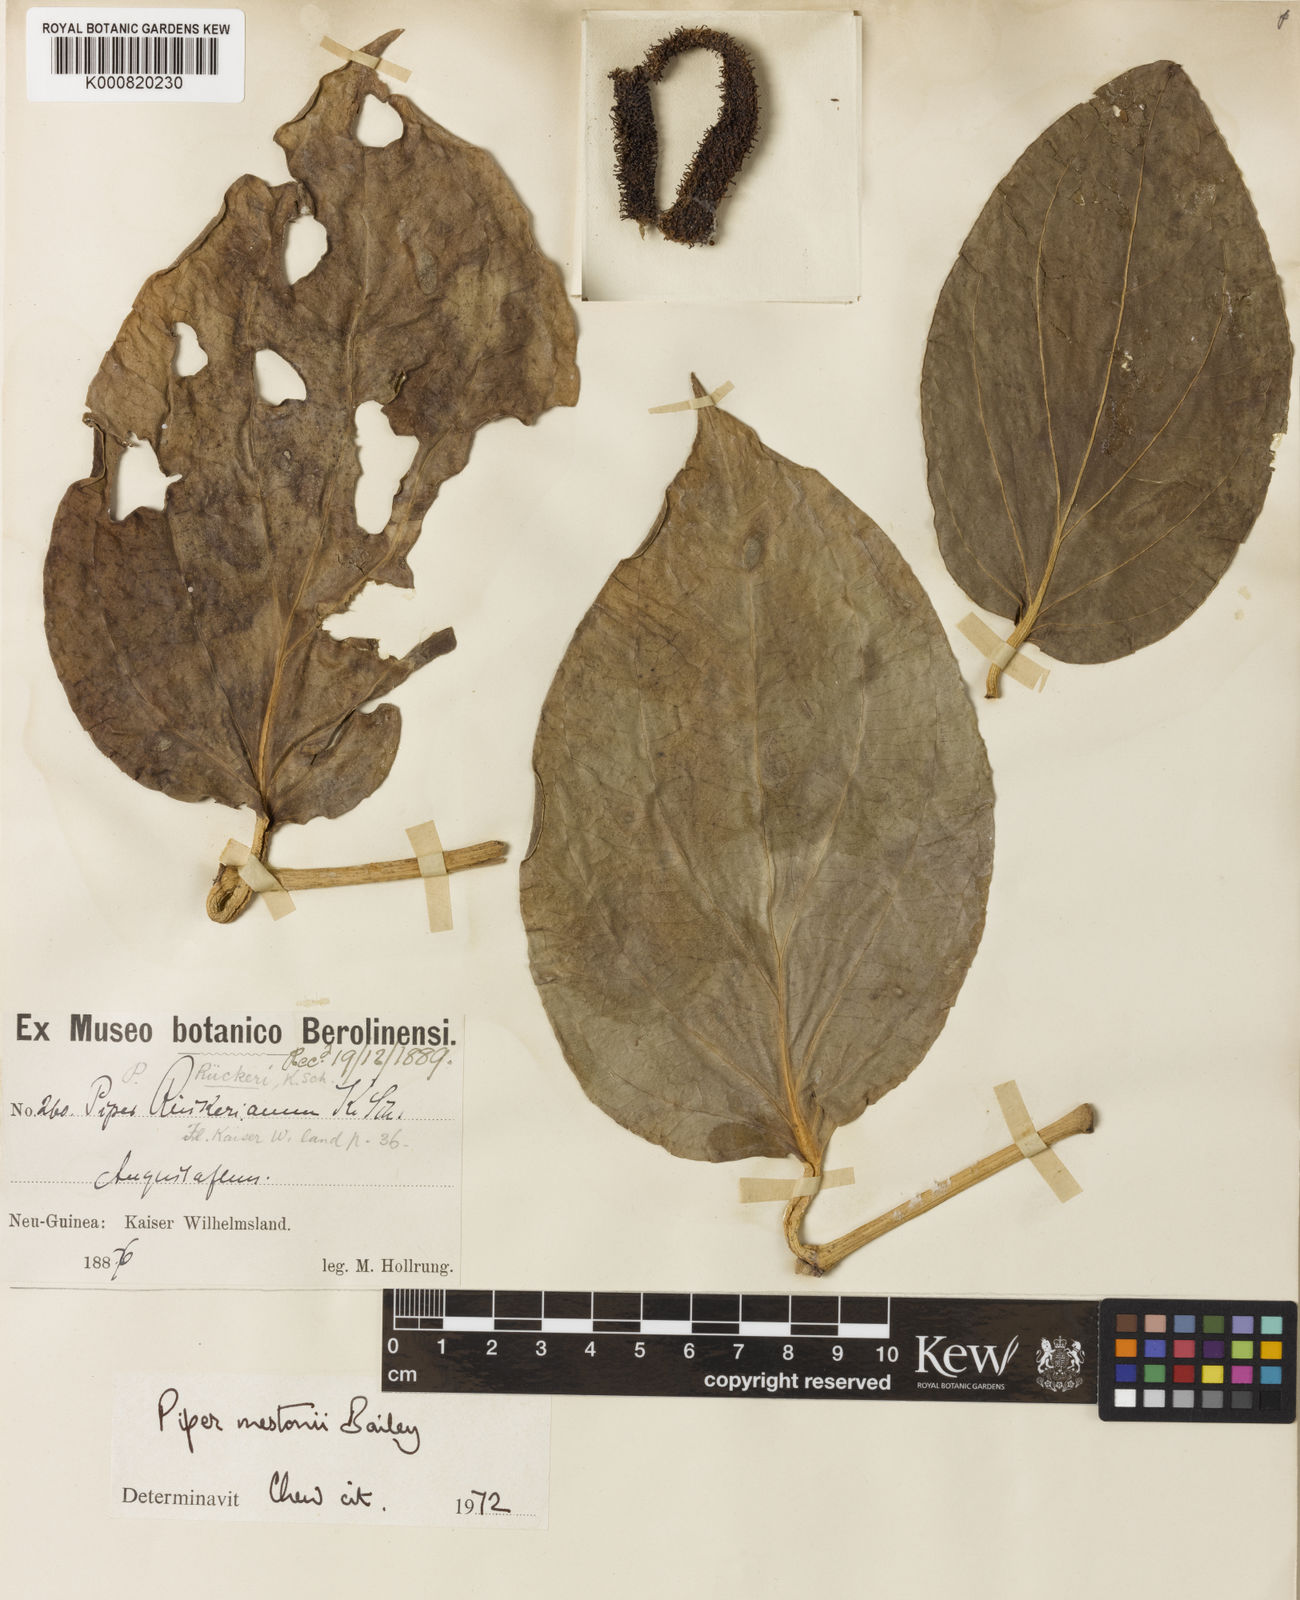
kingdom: Plantae
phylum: Tracheophyta
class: Magnoliopsida
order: Piperales
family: Piperaceae
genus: Piper
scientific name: Piper mestonii
